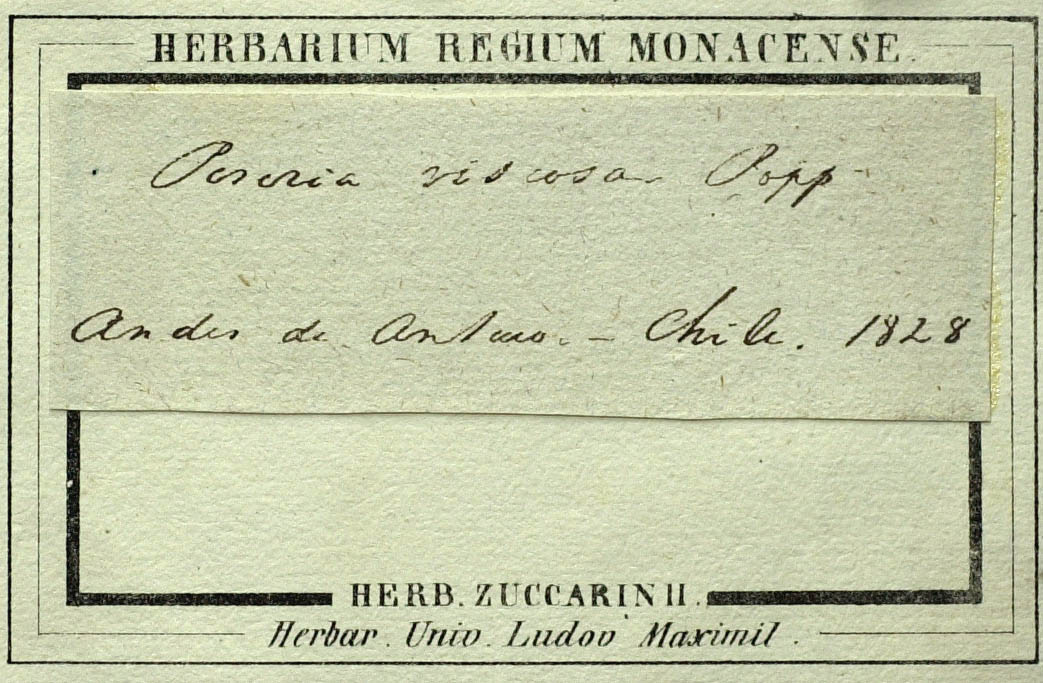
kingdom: Plantae
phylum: Tracheophyta
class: Magnoliopsida
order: Asterales
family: Asteraceae
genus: Perezia
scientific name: Perezia spathulata
